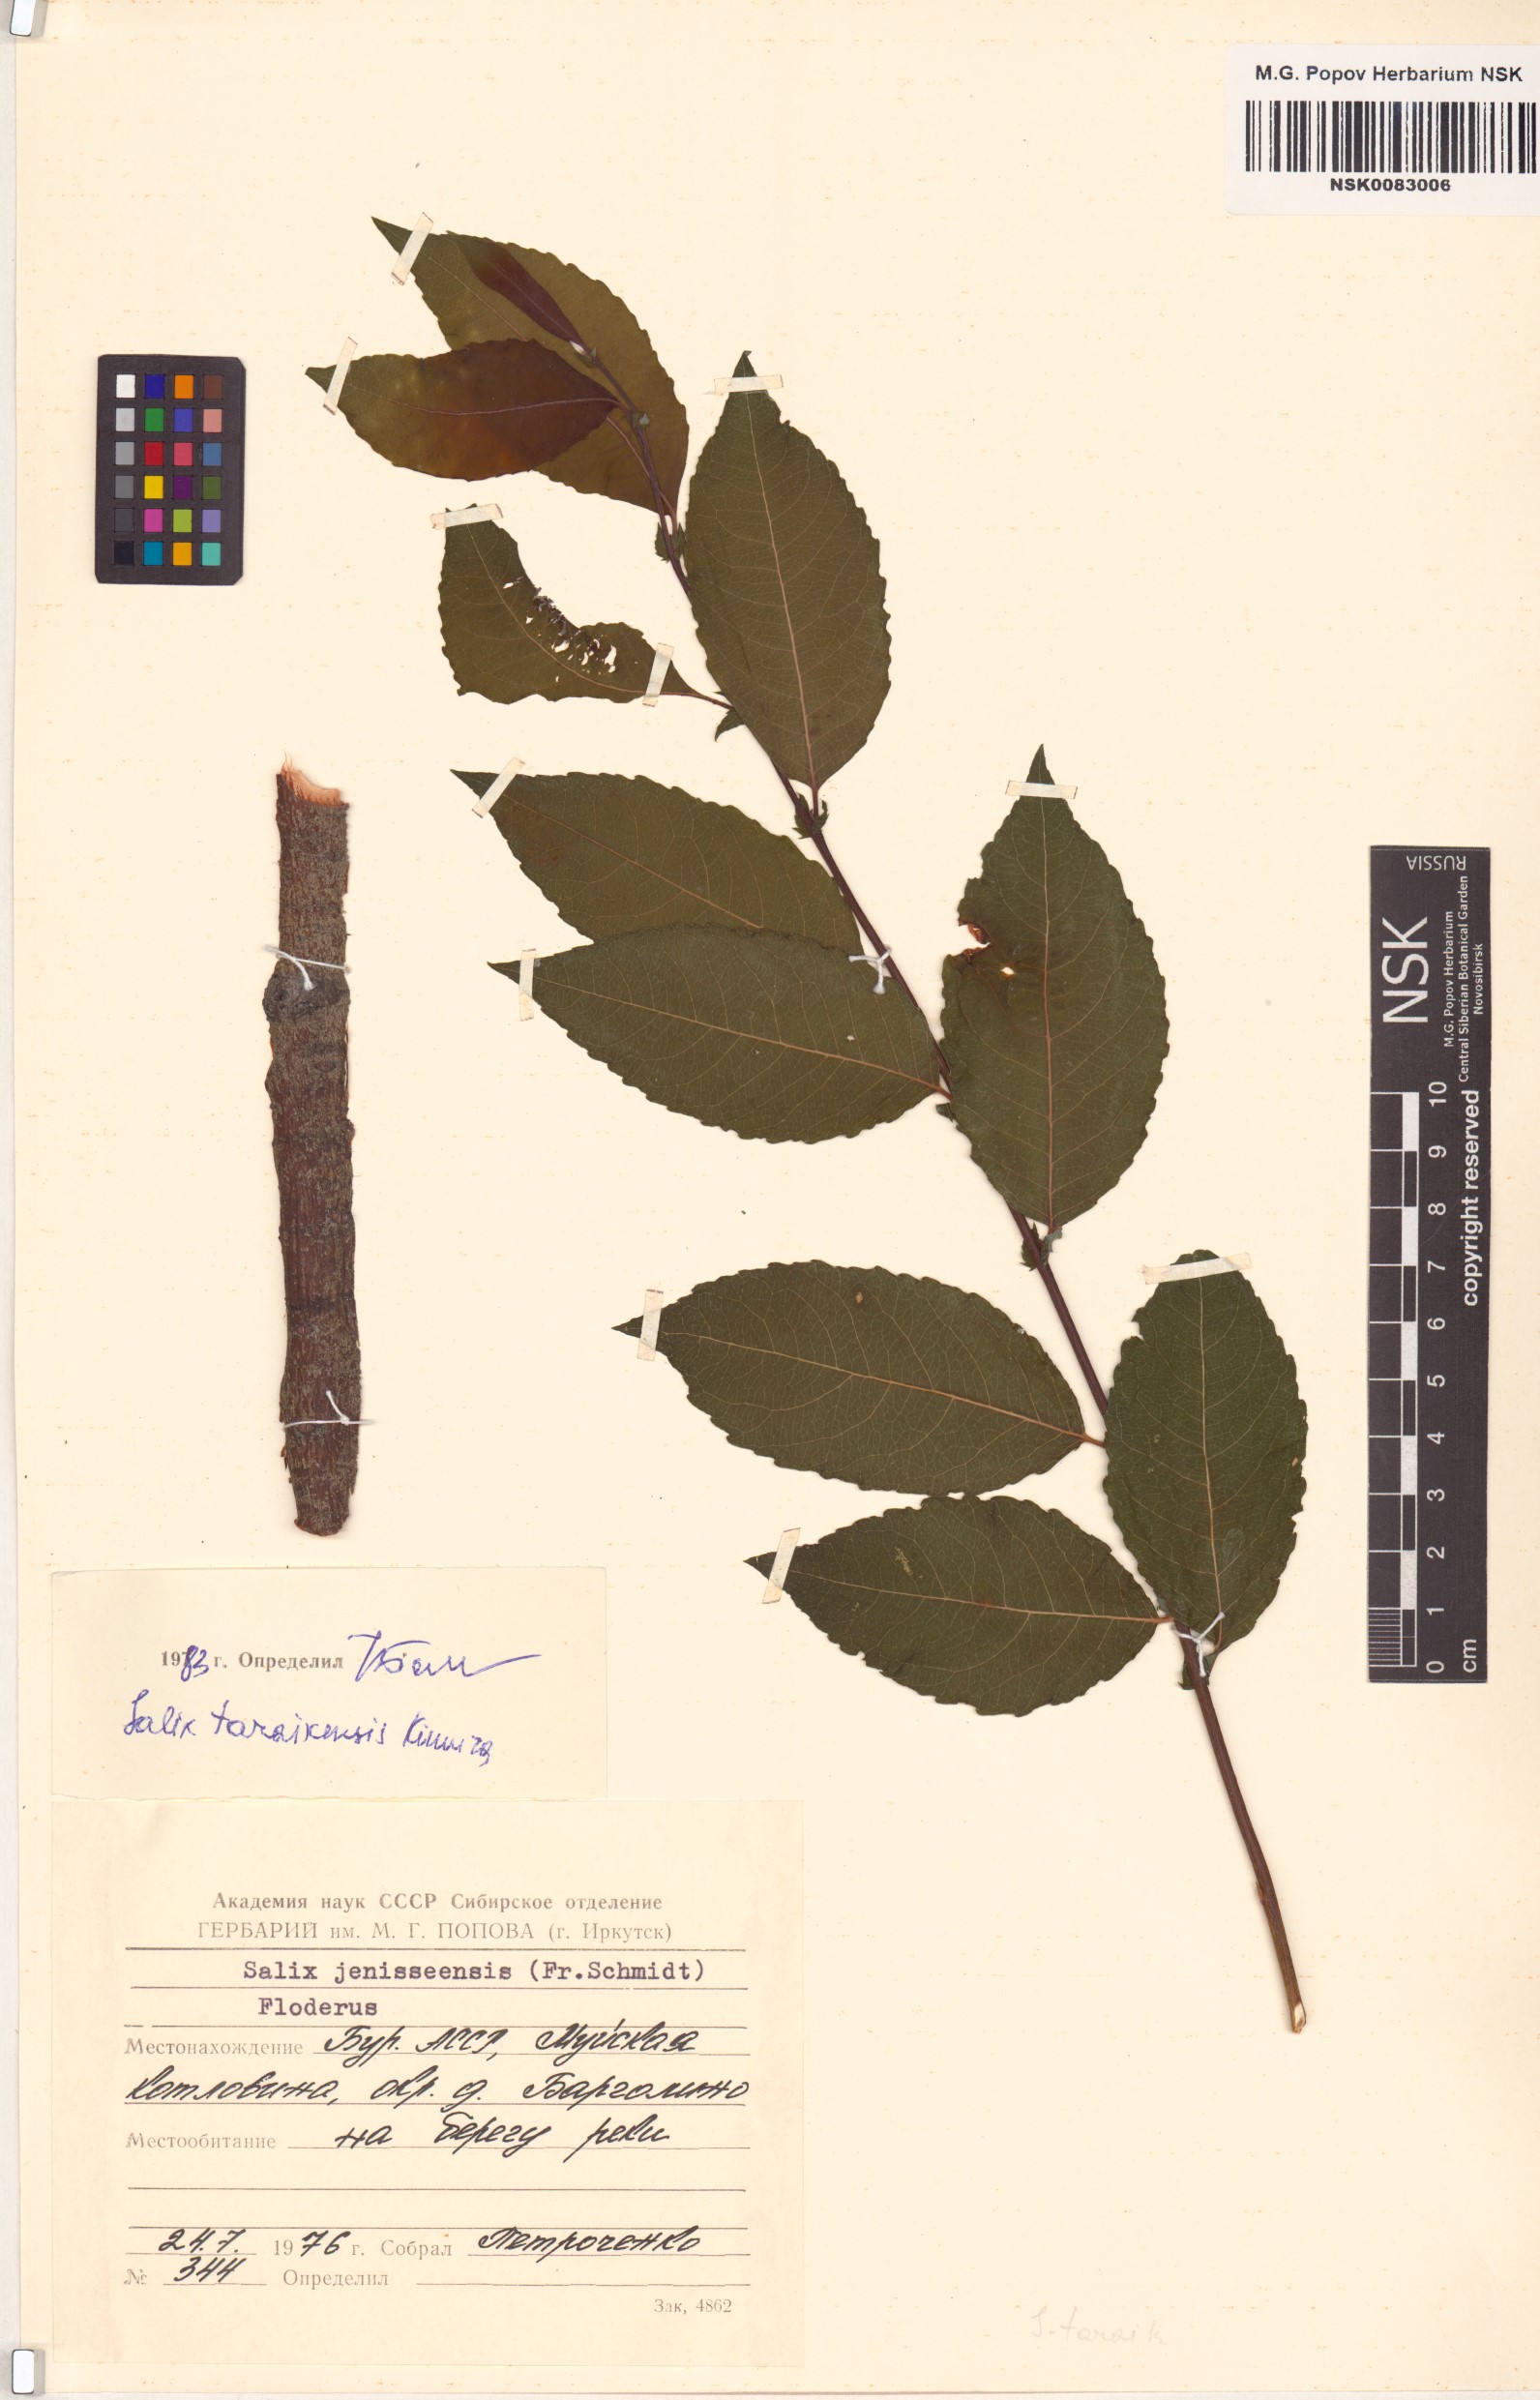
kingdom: Plantae
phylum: Tracheophyta
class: Magnoliopsida
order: Malpighiales
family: Salicaceae
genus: Salix
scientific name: Salix taraikensis
